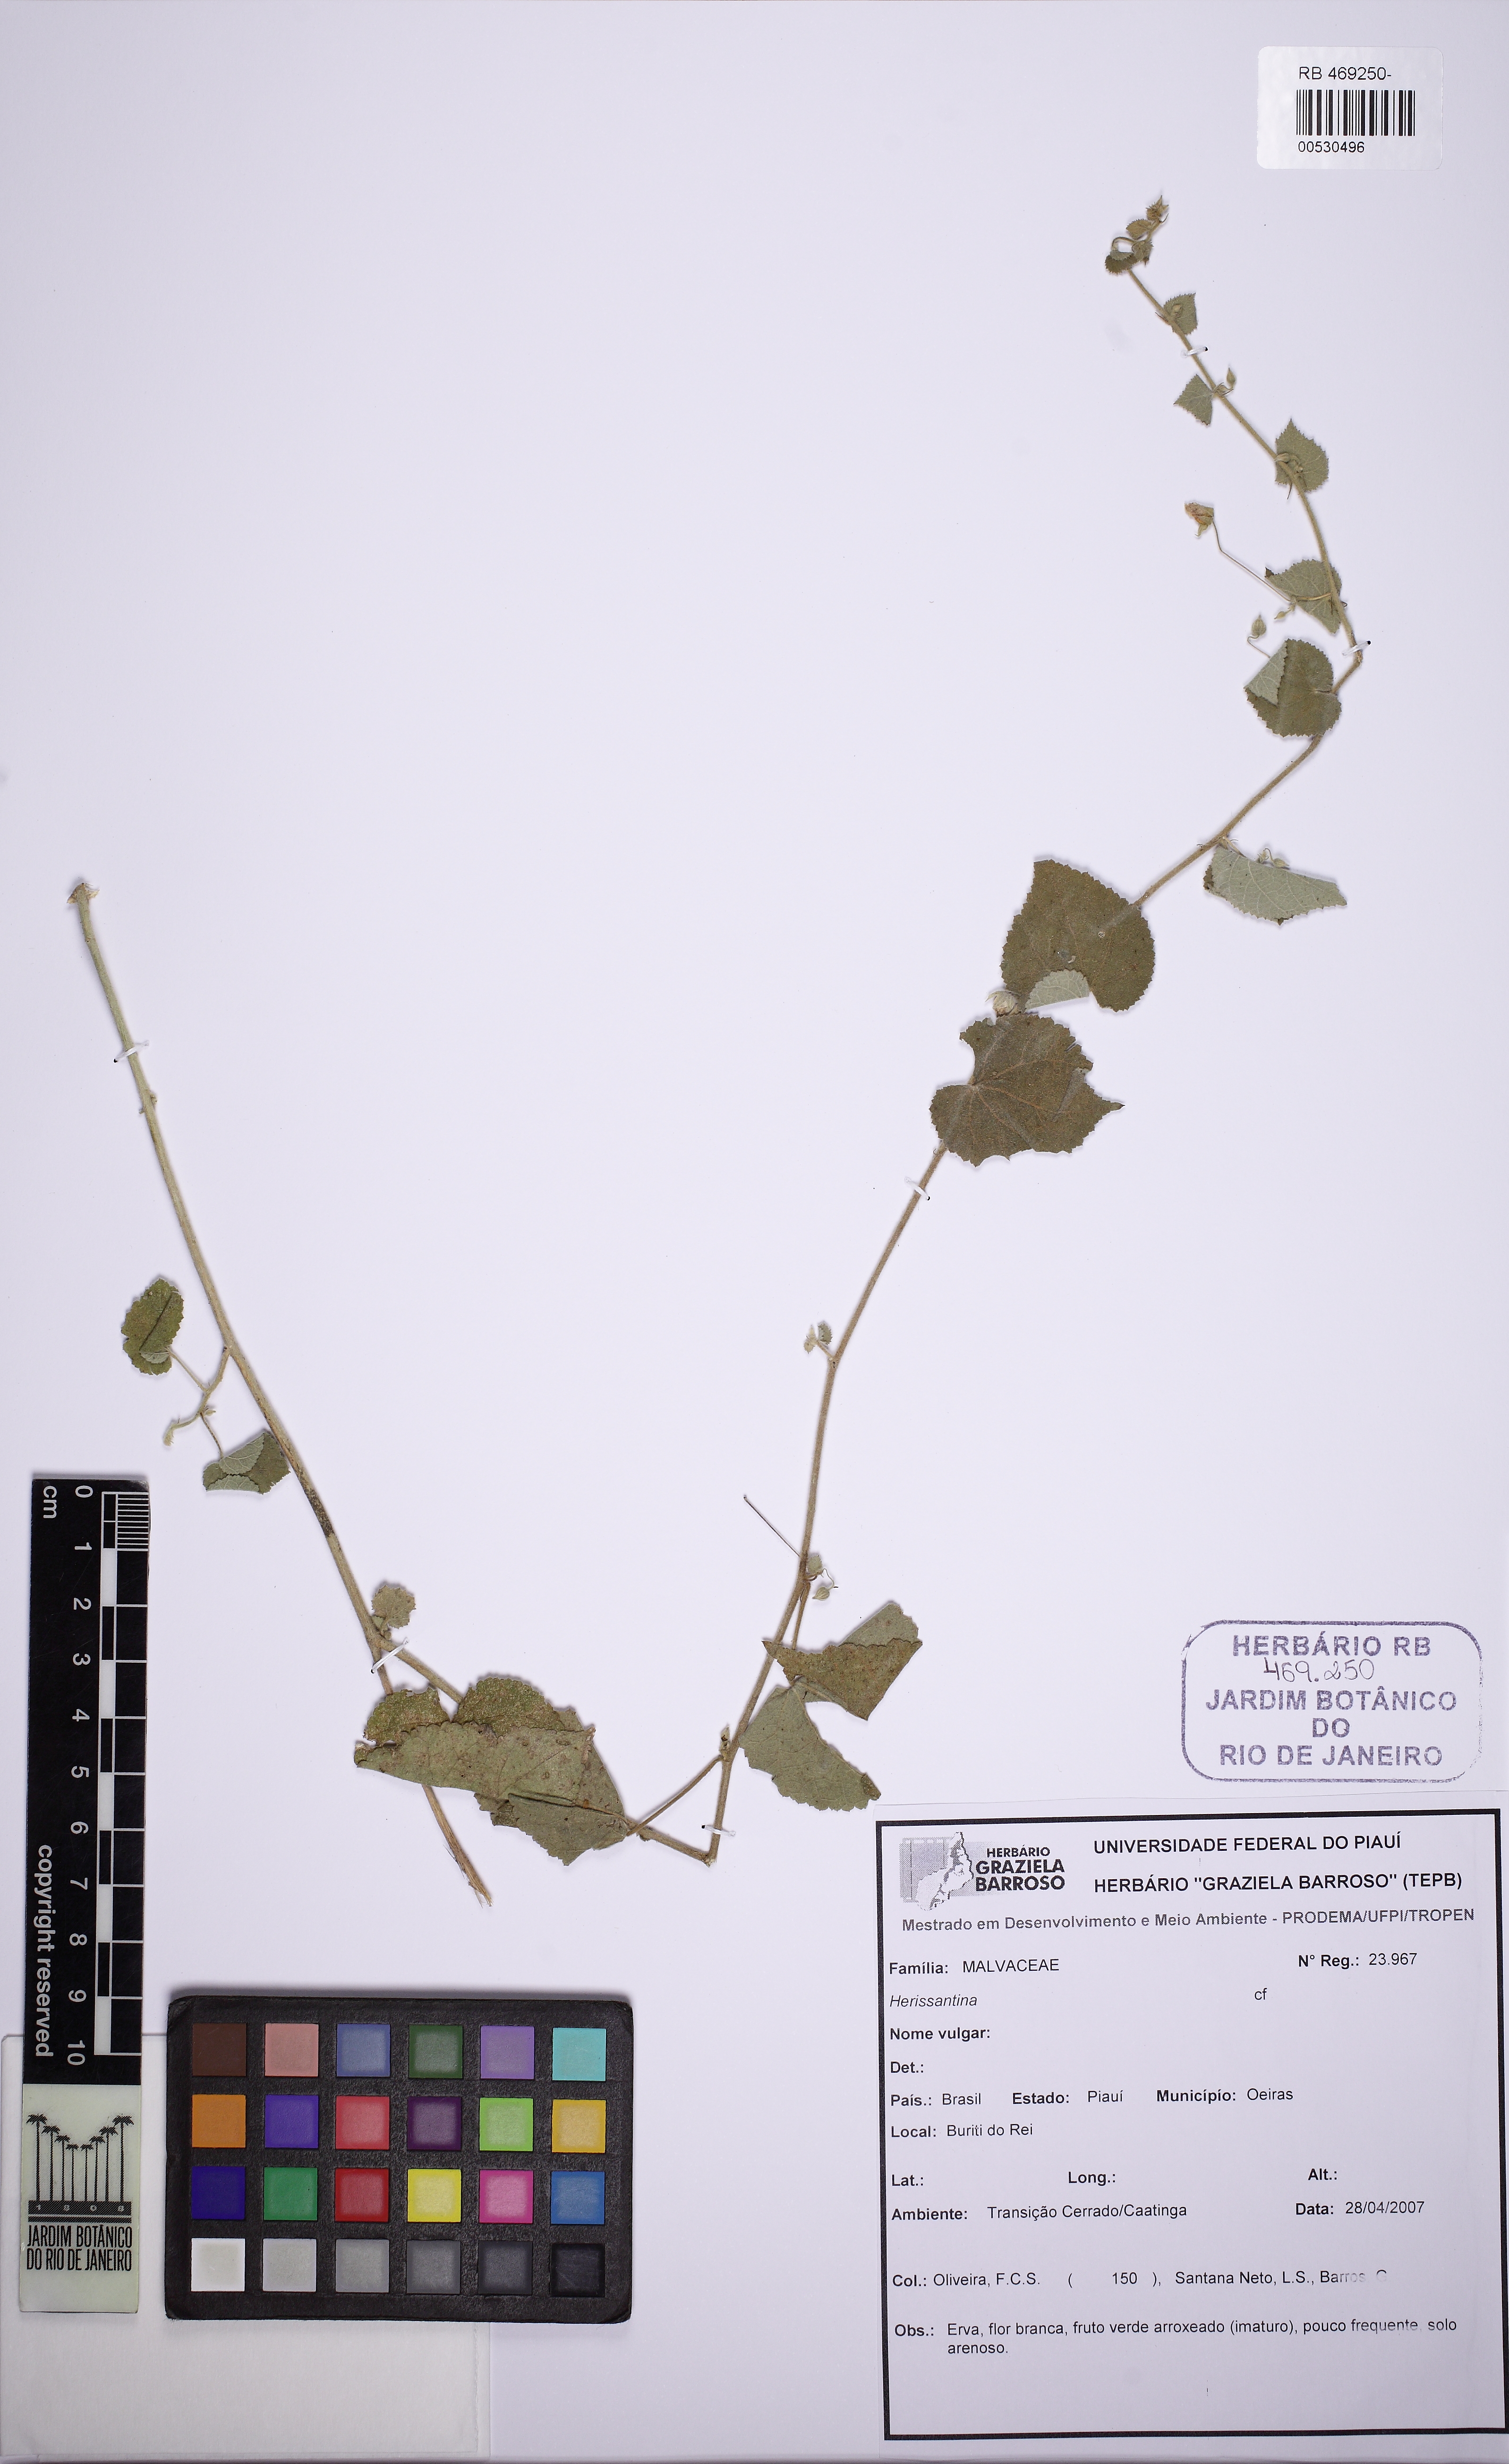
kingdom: Plantae
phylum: Tracheophyta
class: Magnoliopsida
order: Malvales
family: Malvaceae
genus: Herissantia
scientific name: Herissantia
